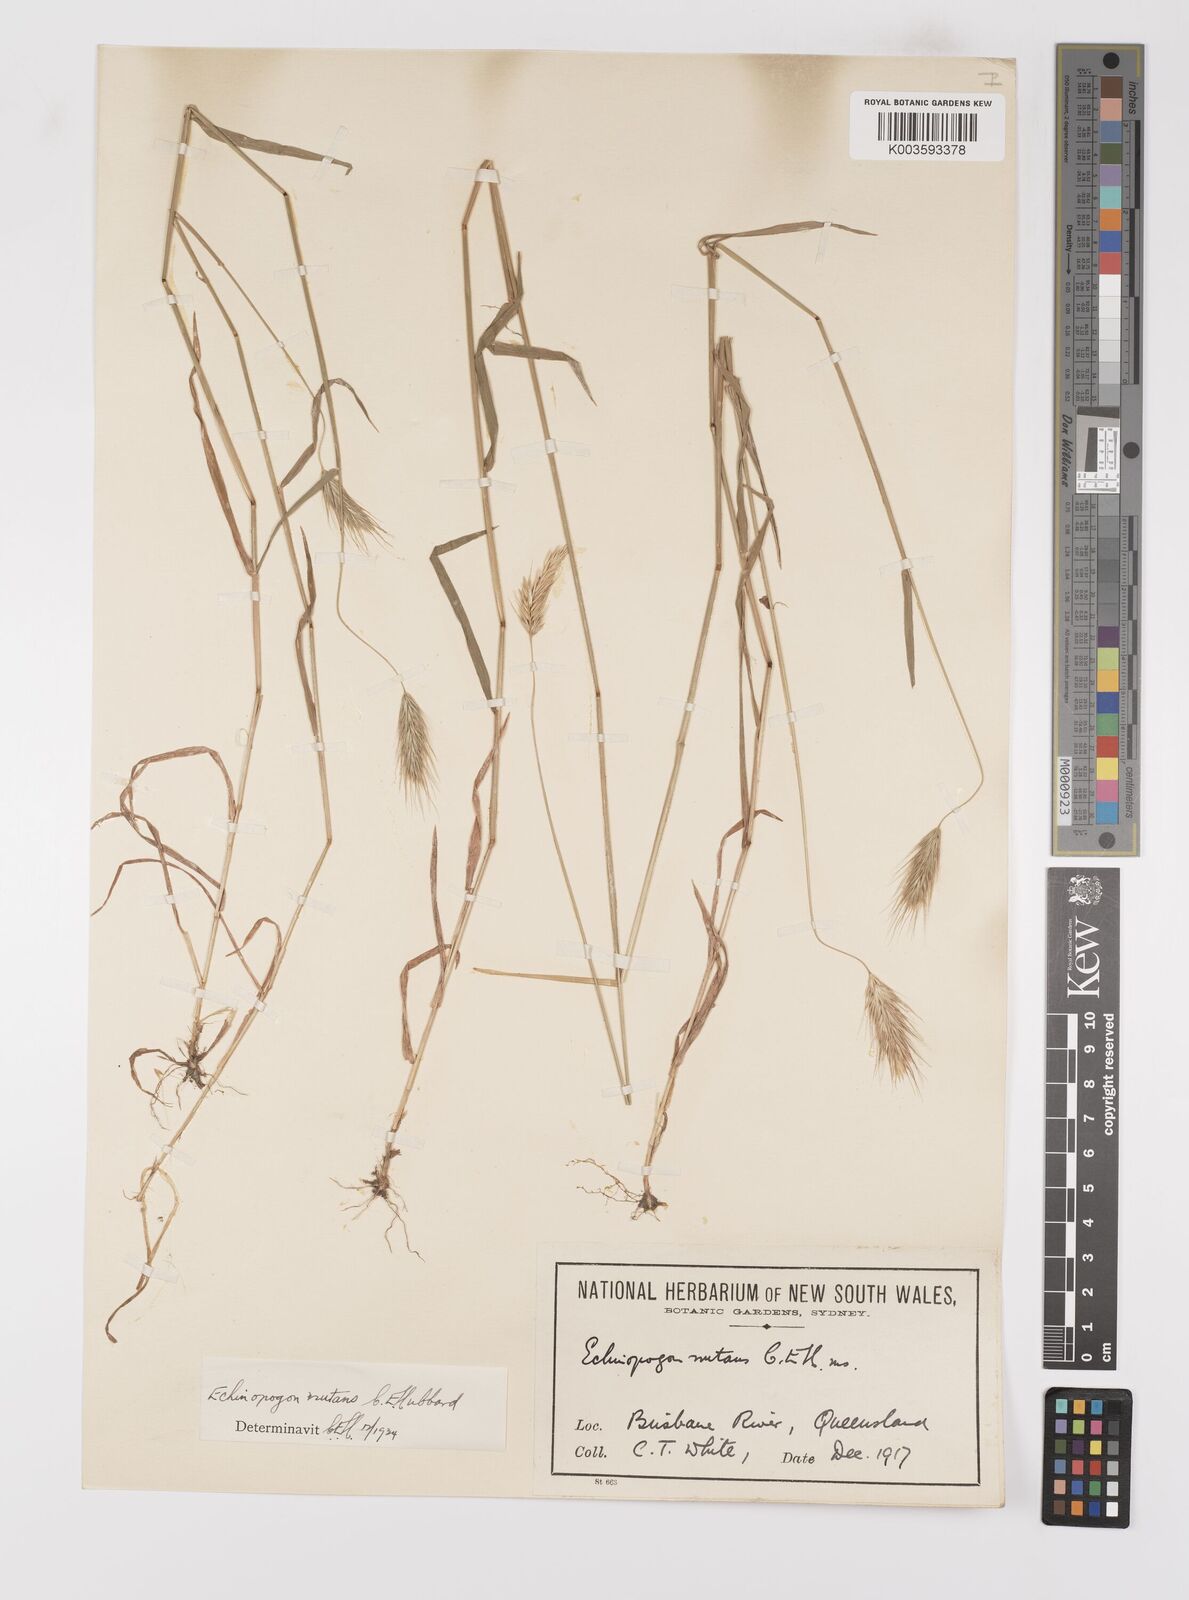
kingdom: Plantae
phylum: Tracheophyta
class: Liliopsida
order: Poales
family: Poaceae
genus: Echinopogon
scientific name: Echinopogon nutans
